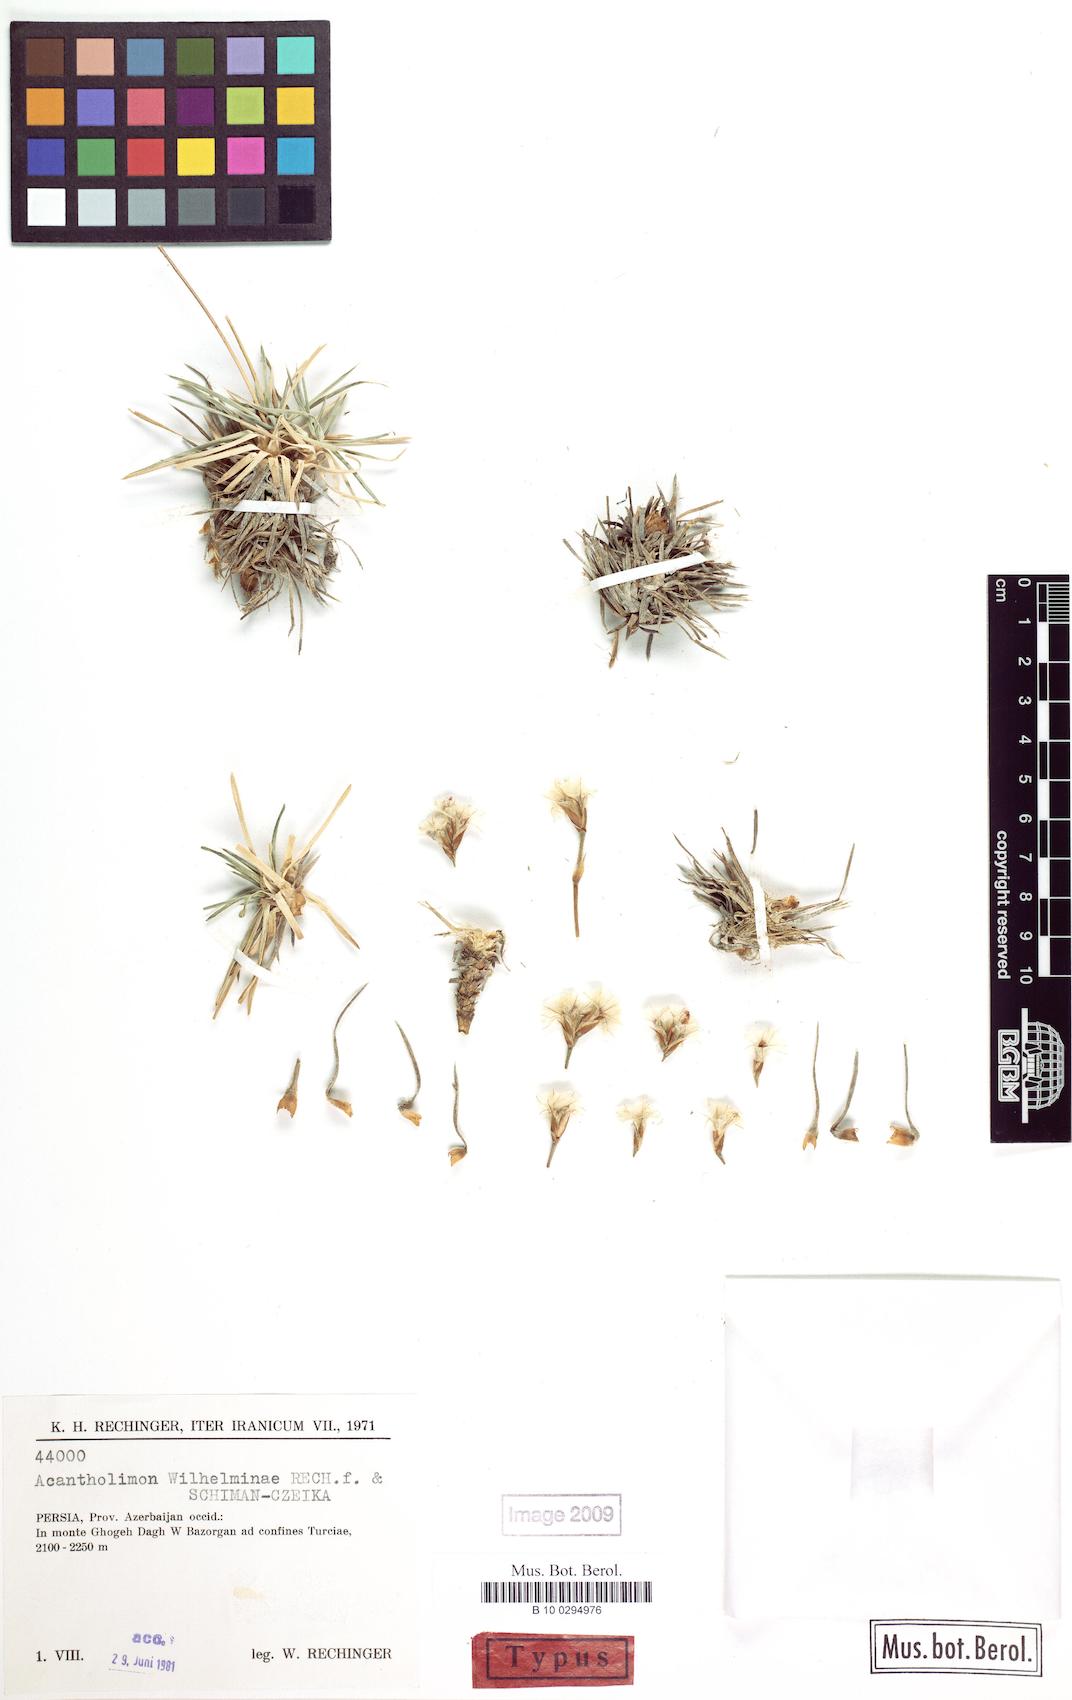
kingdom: Plantae
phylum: Tracheophyta
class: Magnoliopsida
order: Caryophyllales
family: Plumbaginaceae
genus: Acantholimon
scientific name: Acantholimon wilhelminae
